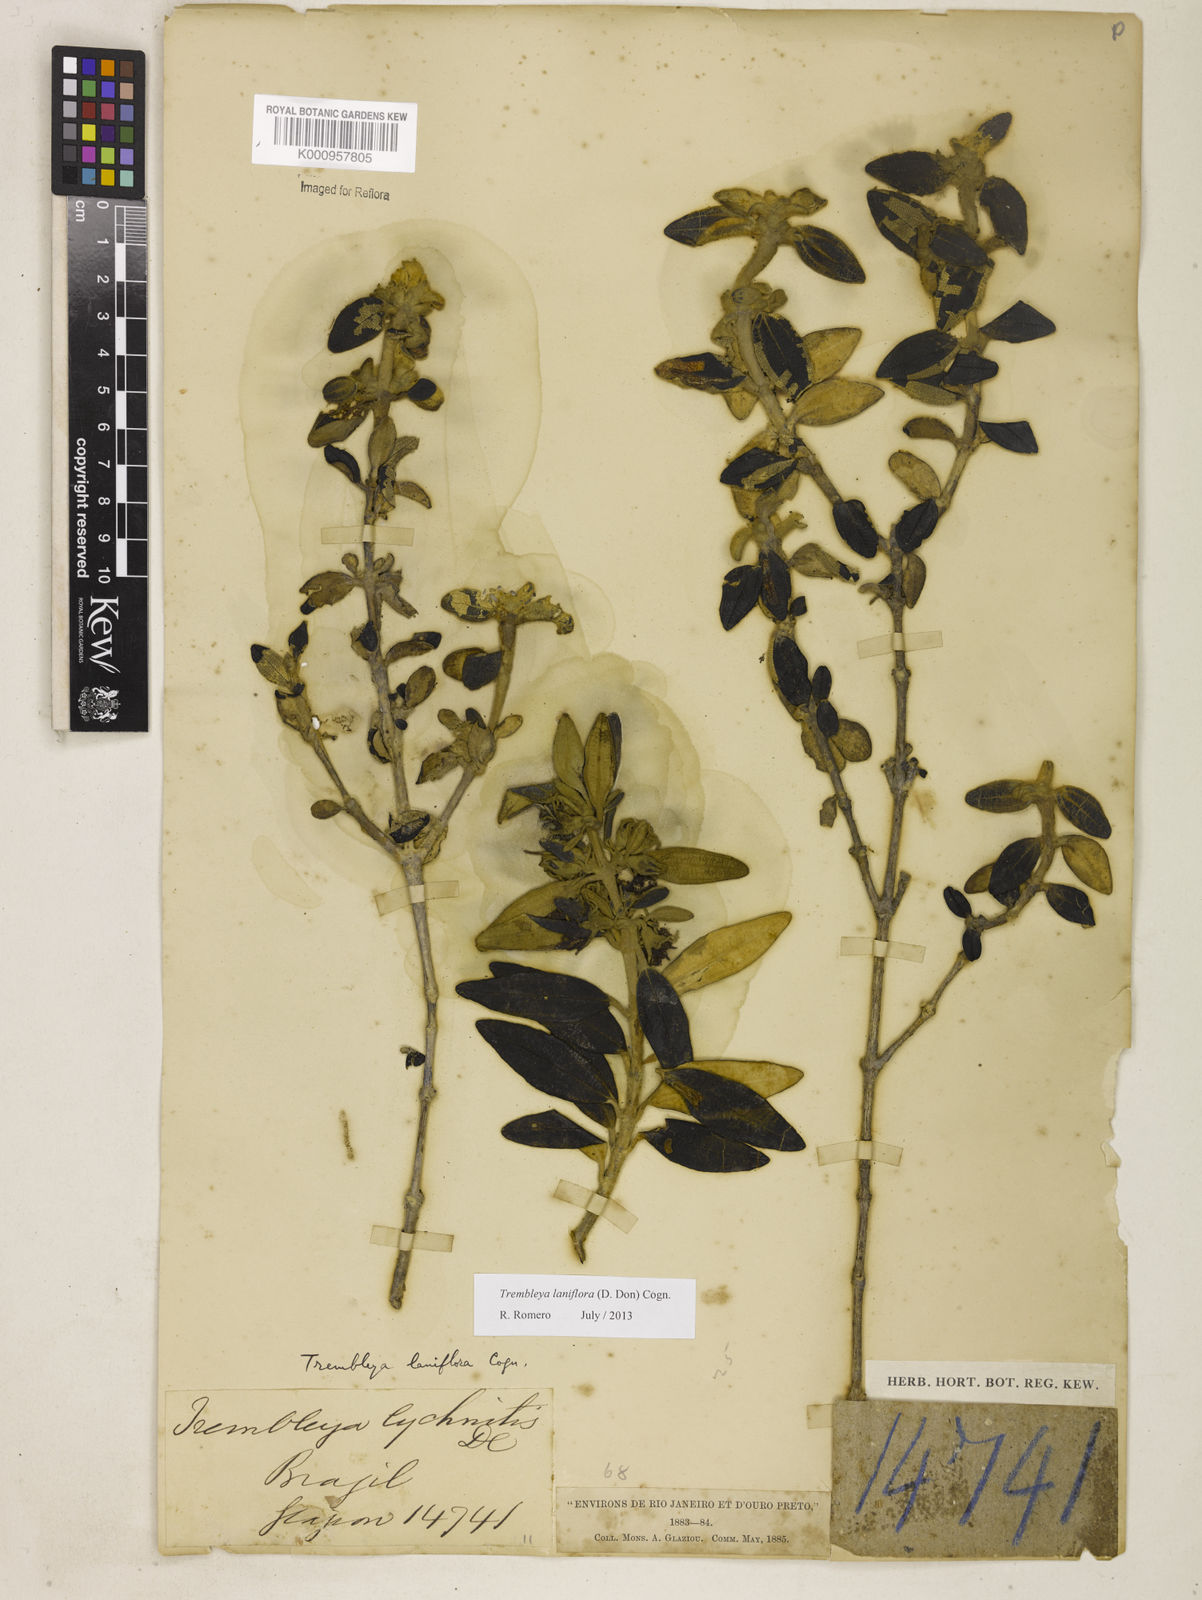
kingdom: Plantae
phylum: Tracheophyta
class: Magnoliopsida
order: Myrtales
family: Melastomataceae
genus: Microlicia
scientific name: Microlicia laniflora
